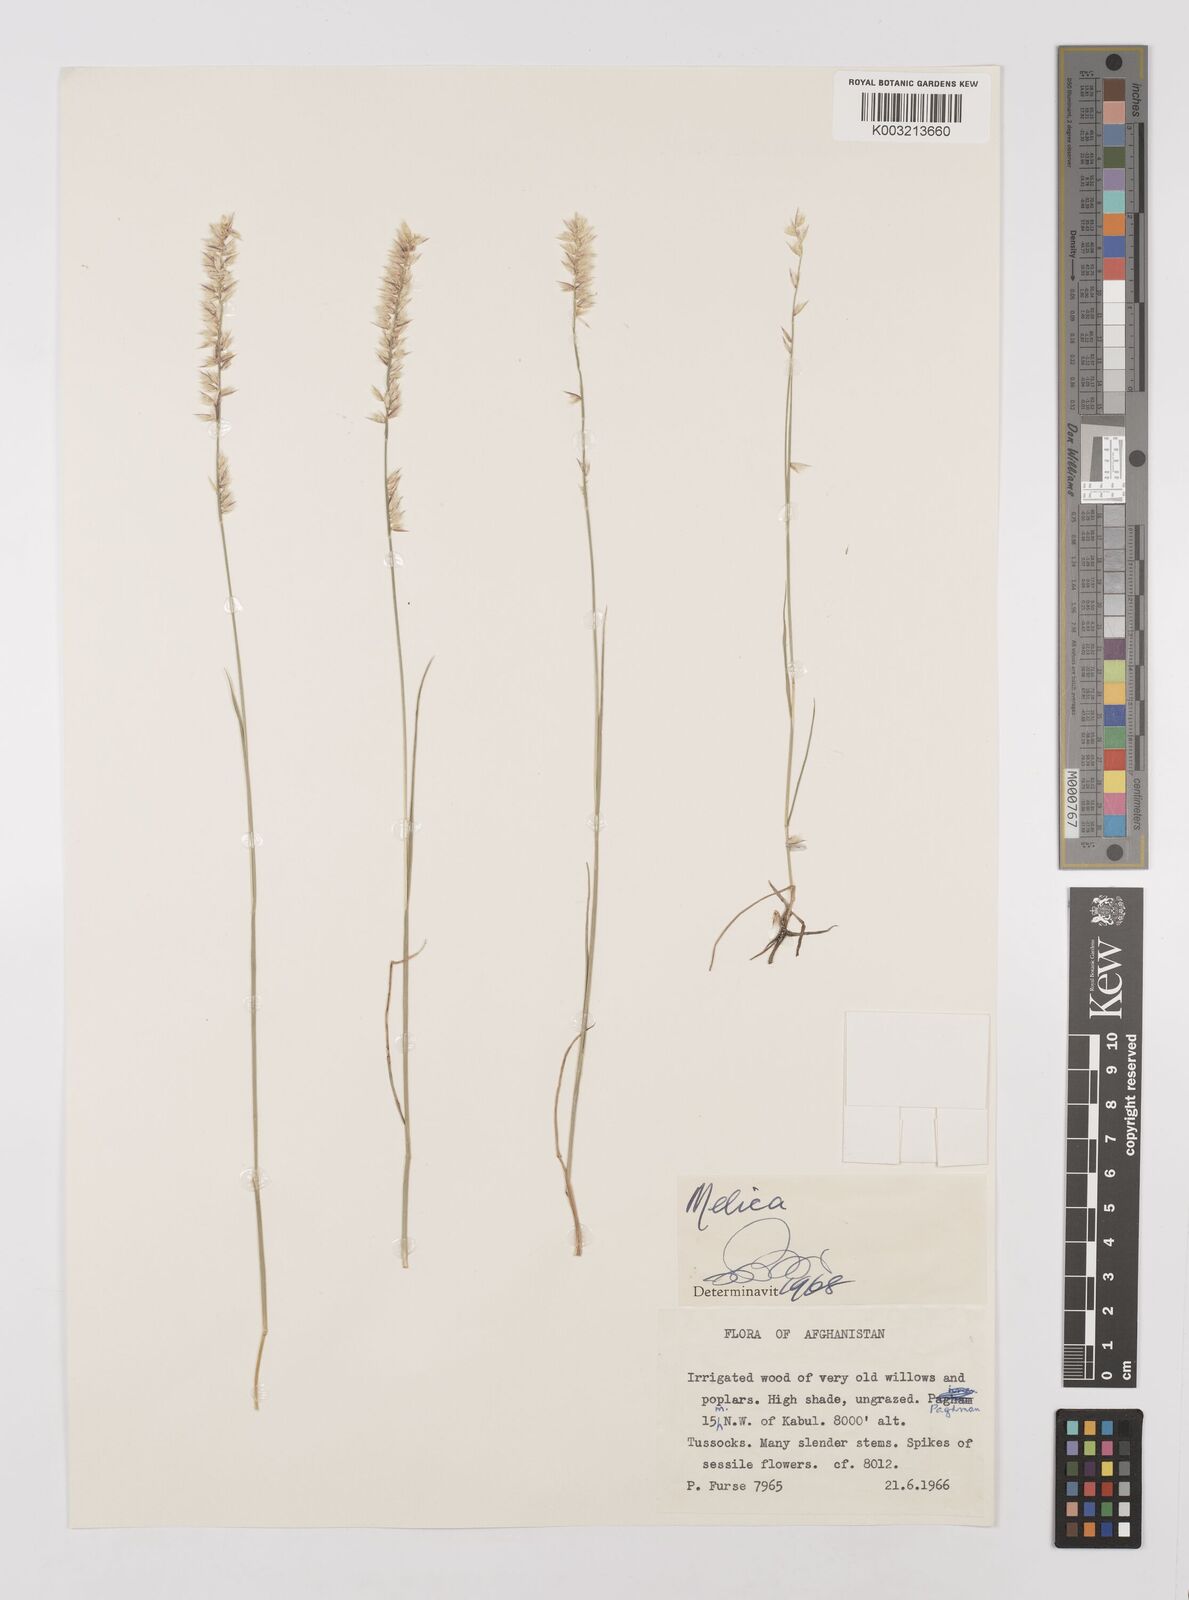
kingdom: Plantae
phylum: Tracheophyta
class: Liliopsida
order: Poales
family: Poaceae
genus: Melica
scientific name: Melica
